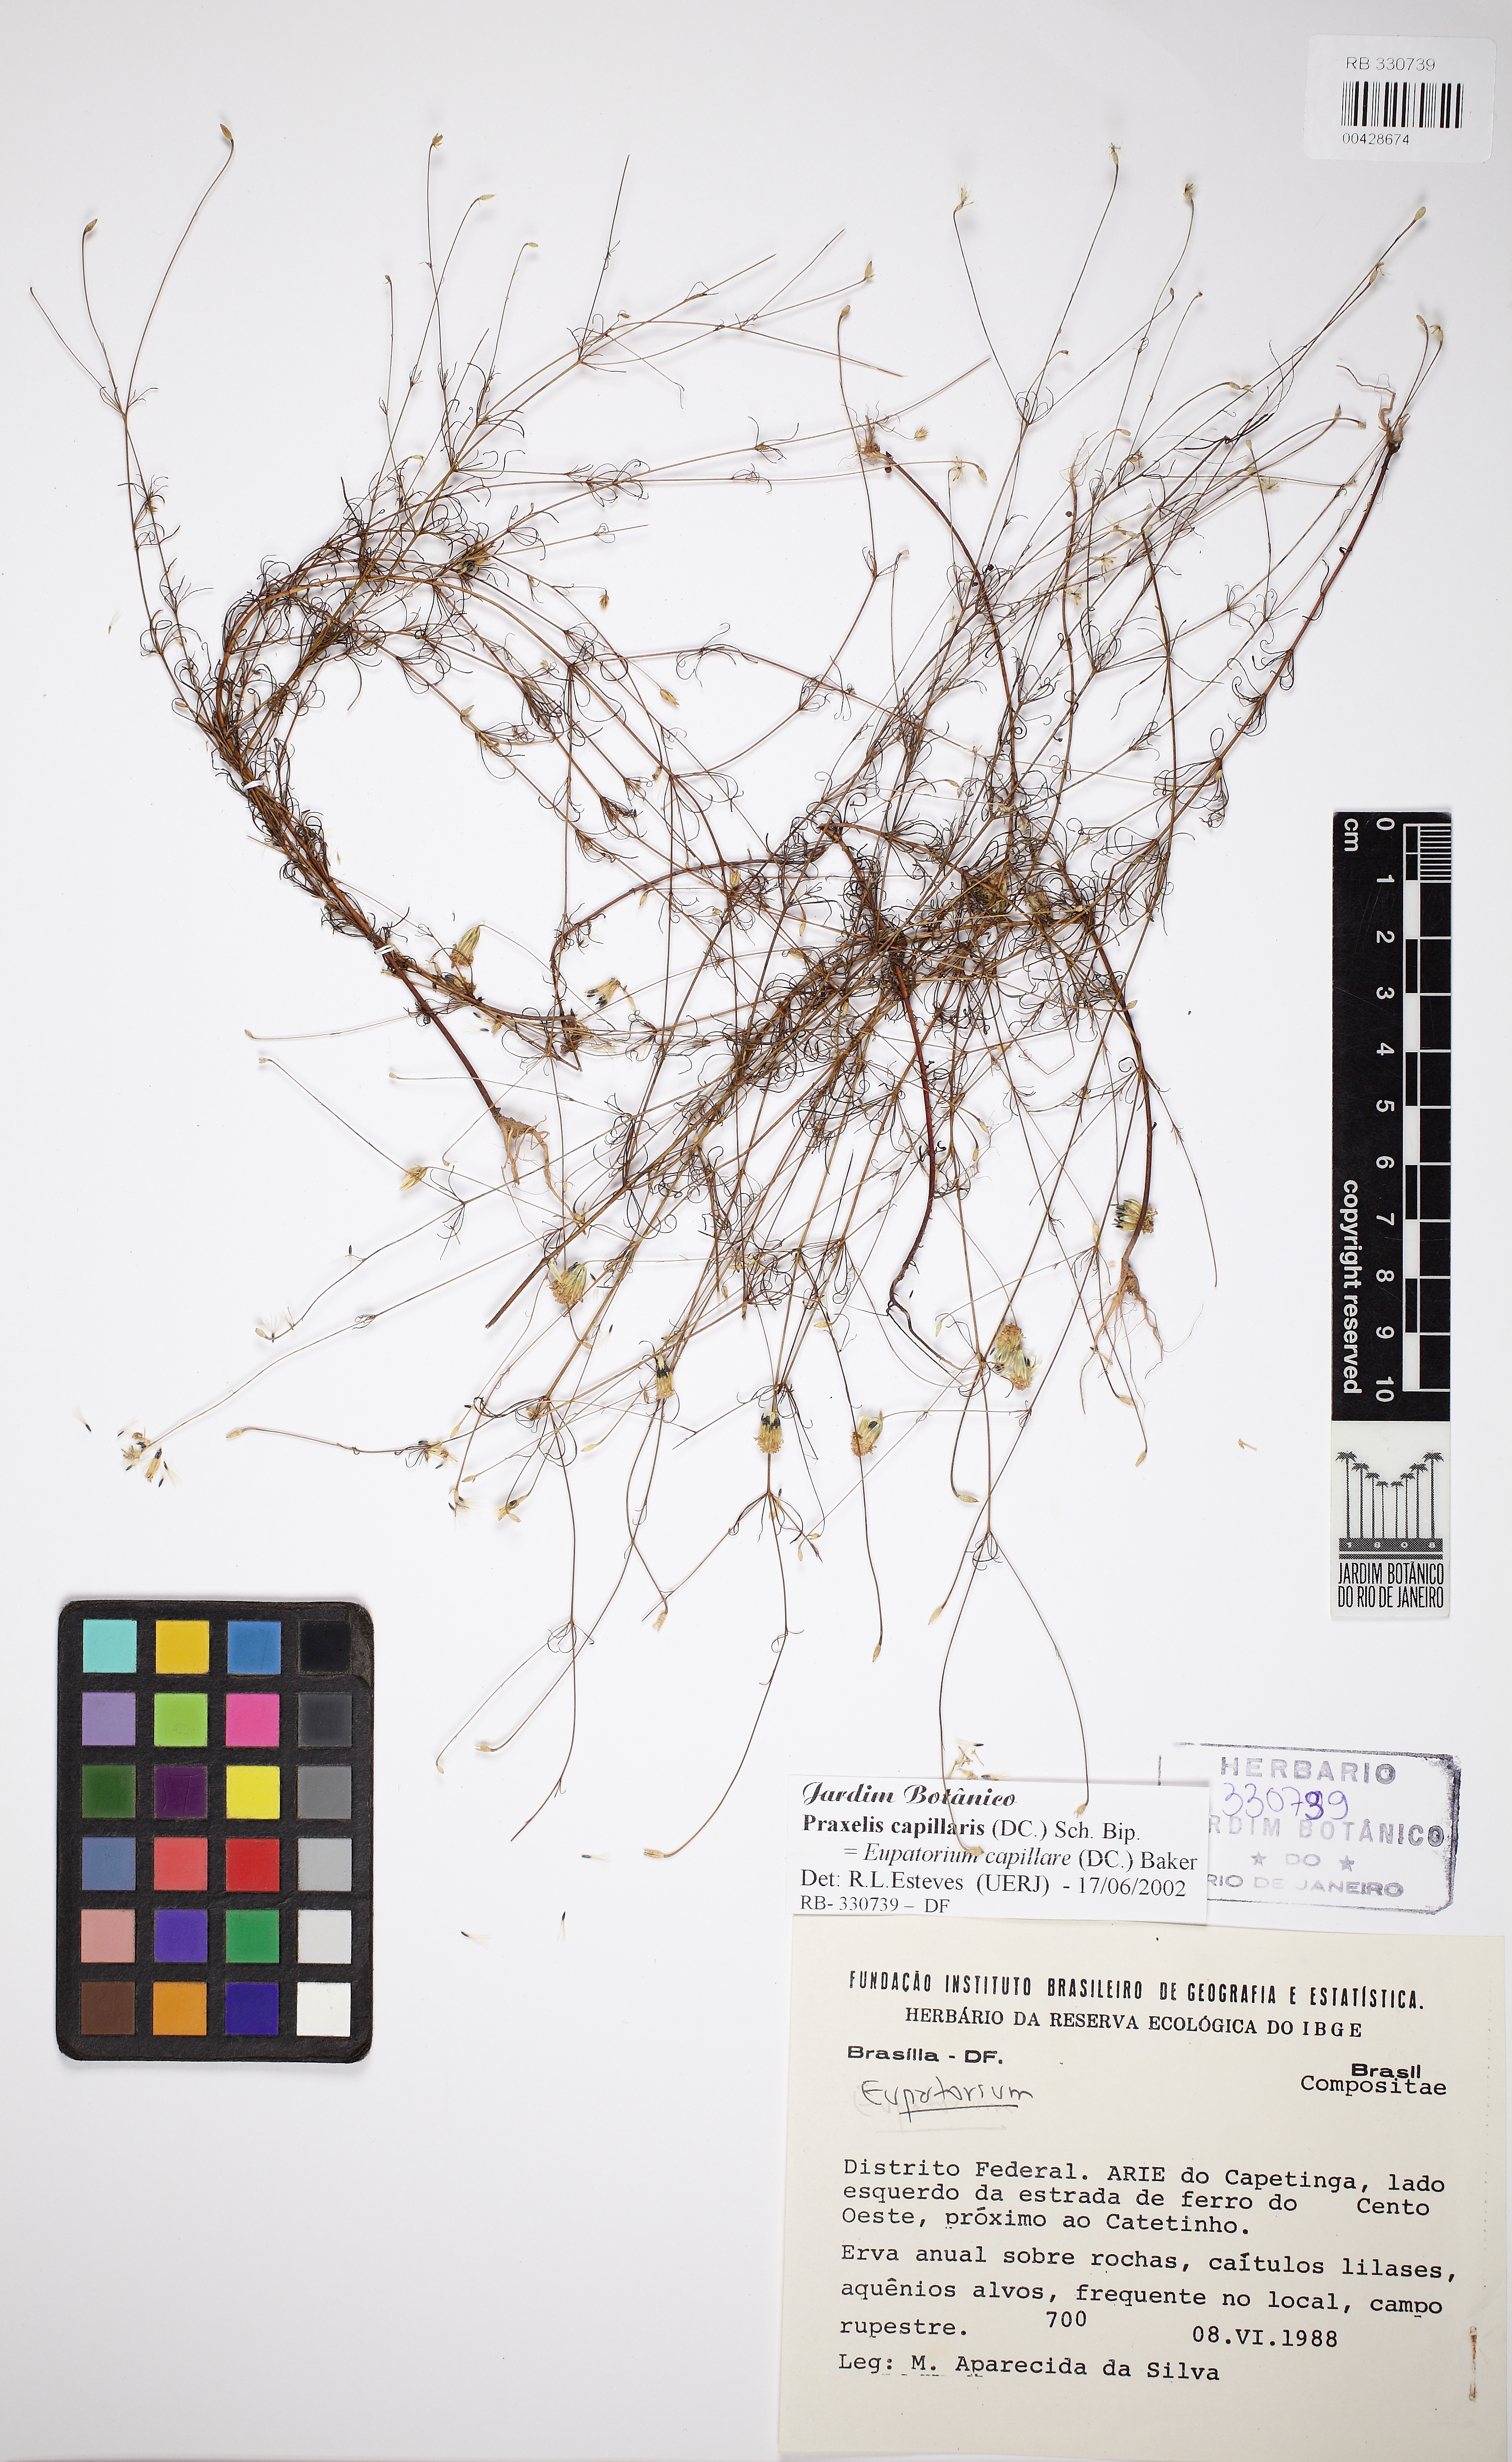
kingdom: Plantae
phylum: Tracheophyta
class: Magnoliopsida
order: Asterales
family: Asteraceae
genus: Praxelis
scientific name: Praxelis capillaris
